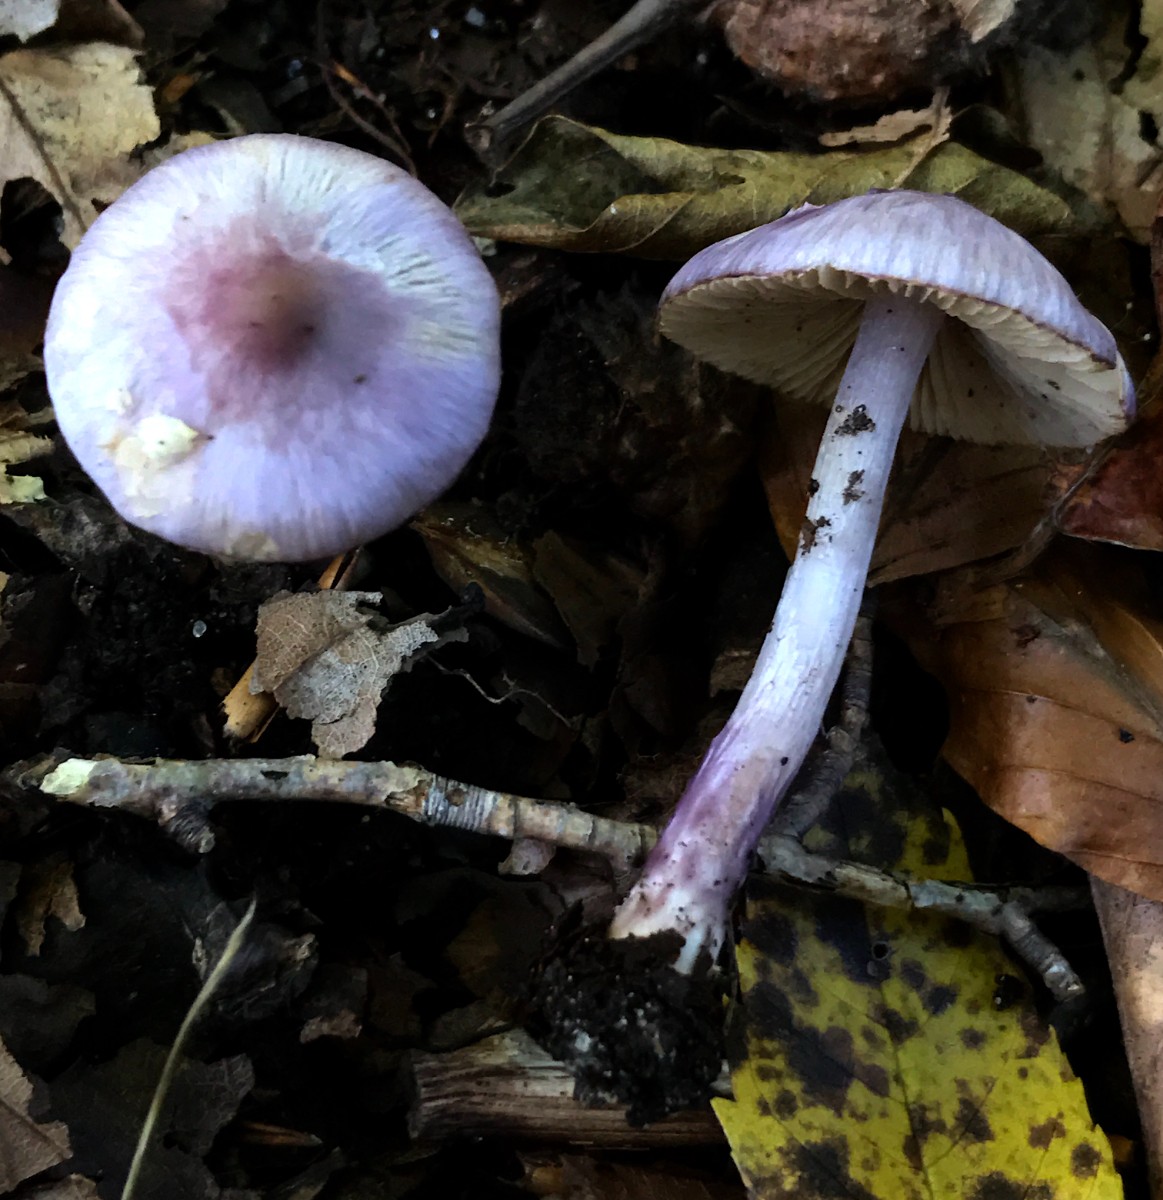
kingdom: Fungi
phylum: Basidiomycota
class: Agaricomycetes
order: Agaricales
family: Inocybaceae
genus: Inocybe
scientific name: Inocybe geophylla
